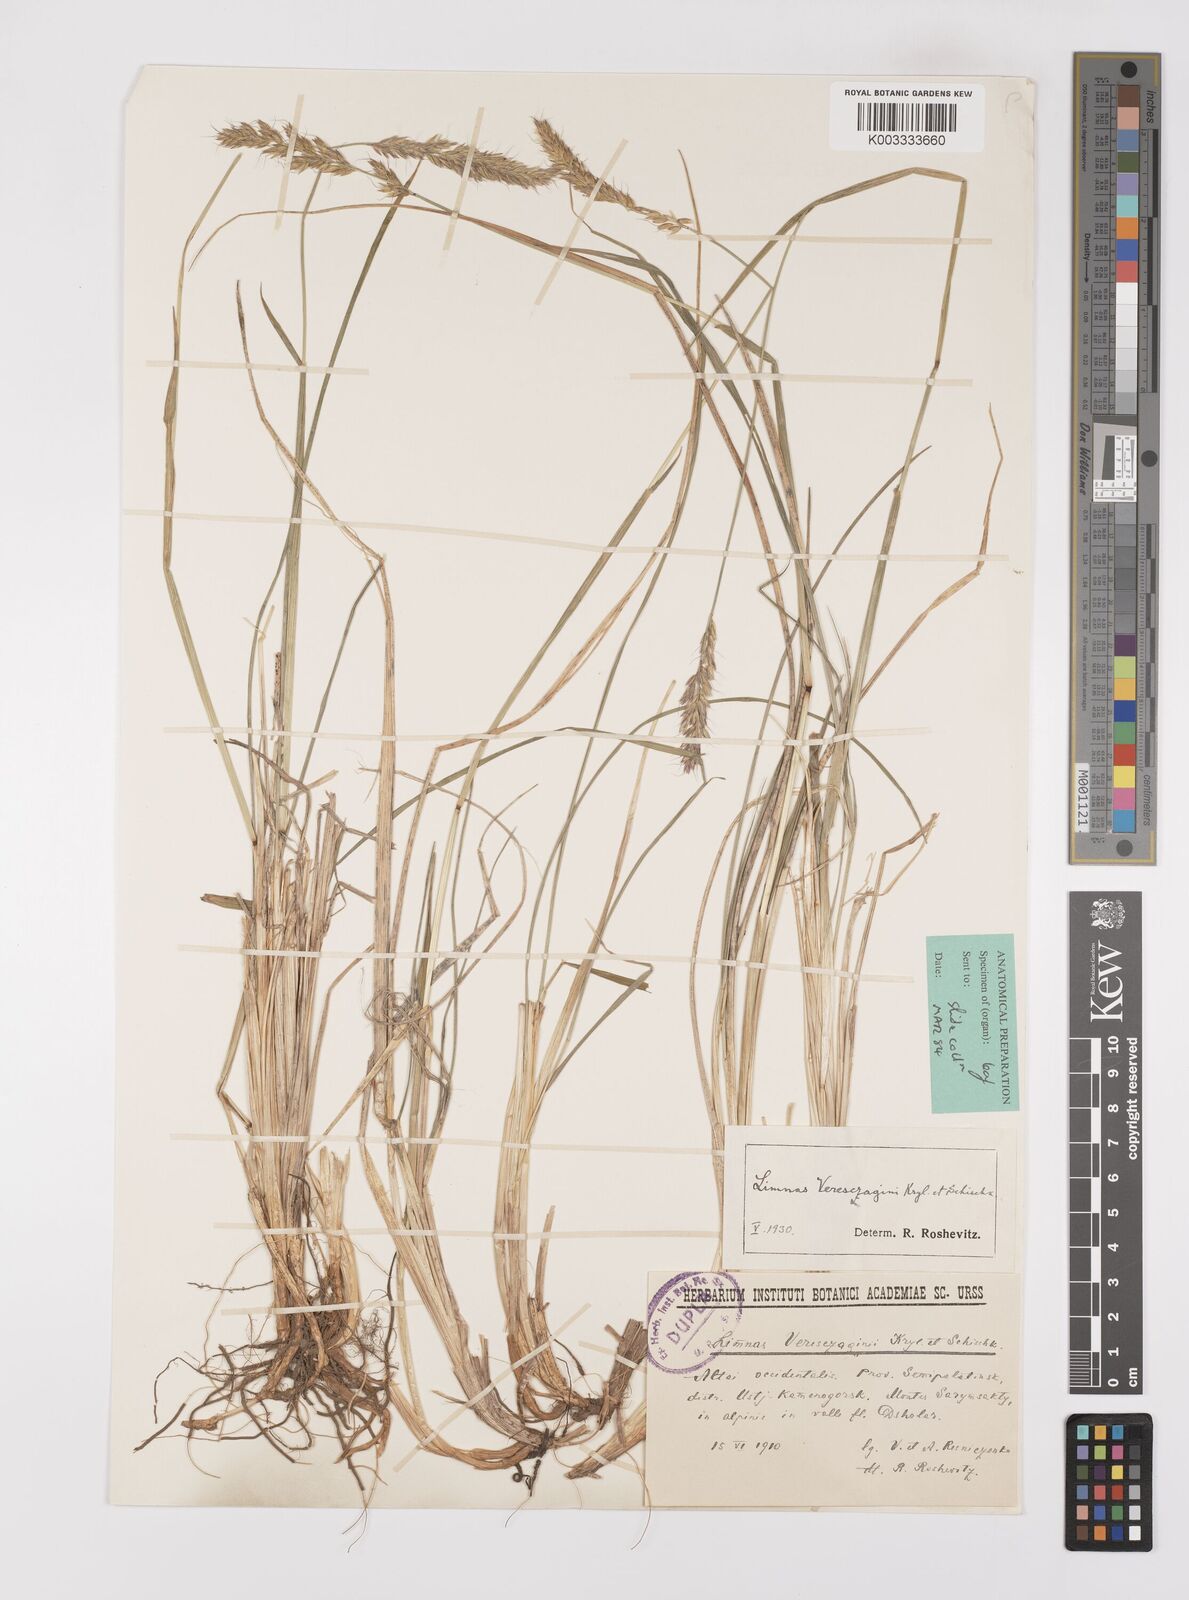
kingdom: Plantae
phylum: Tracheophyta
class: Liliopsida
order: Poales
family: Poaceae
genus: Limnas
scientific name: Limnas veresczaginii
